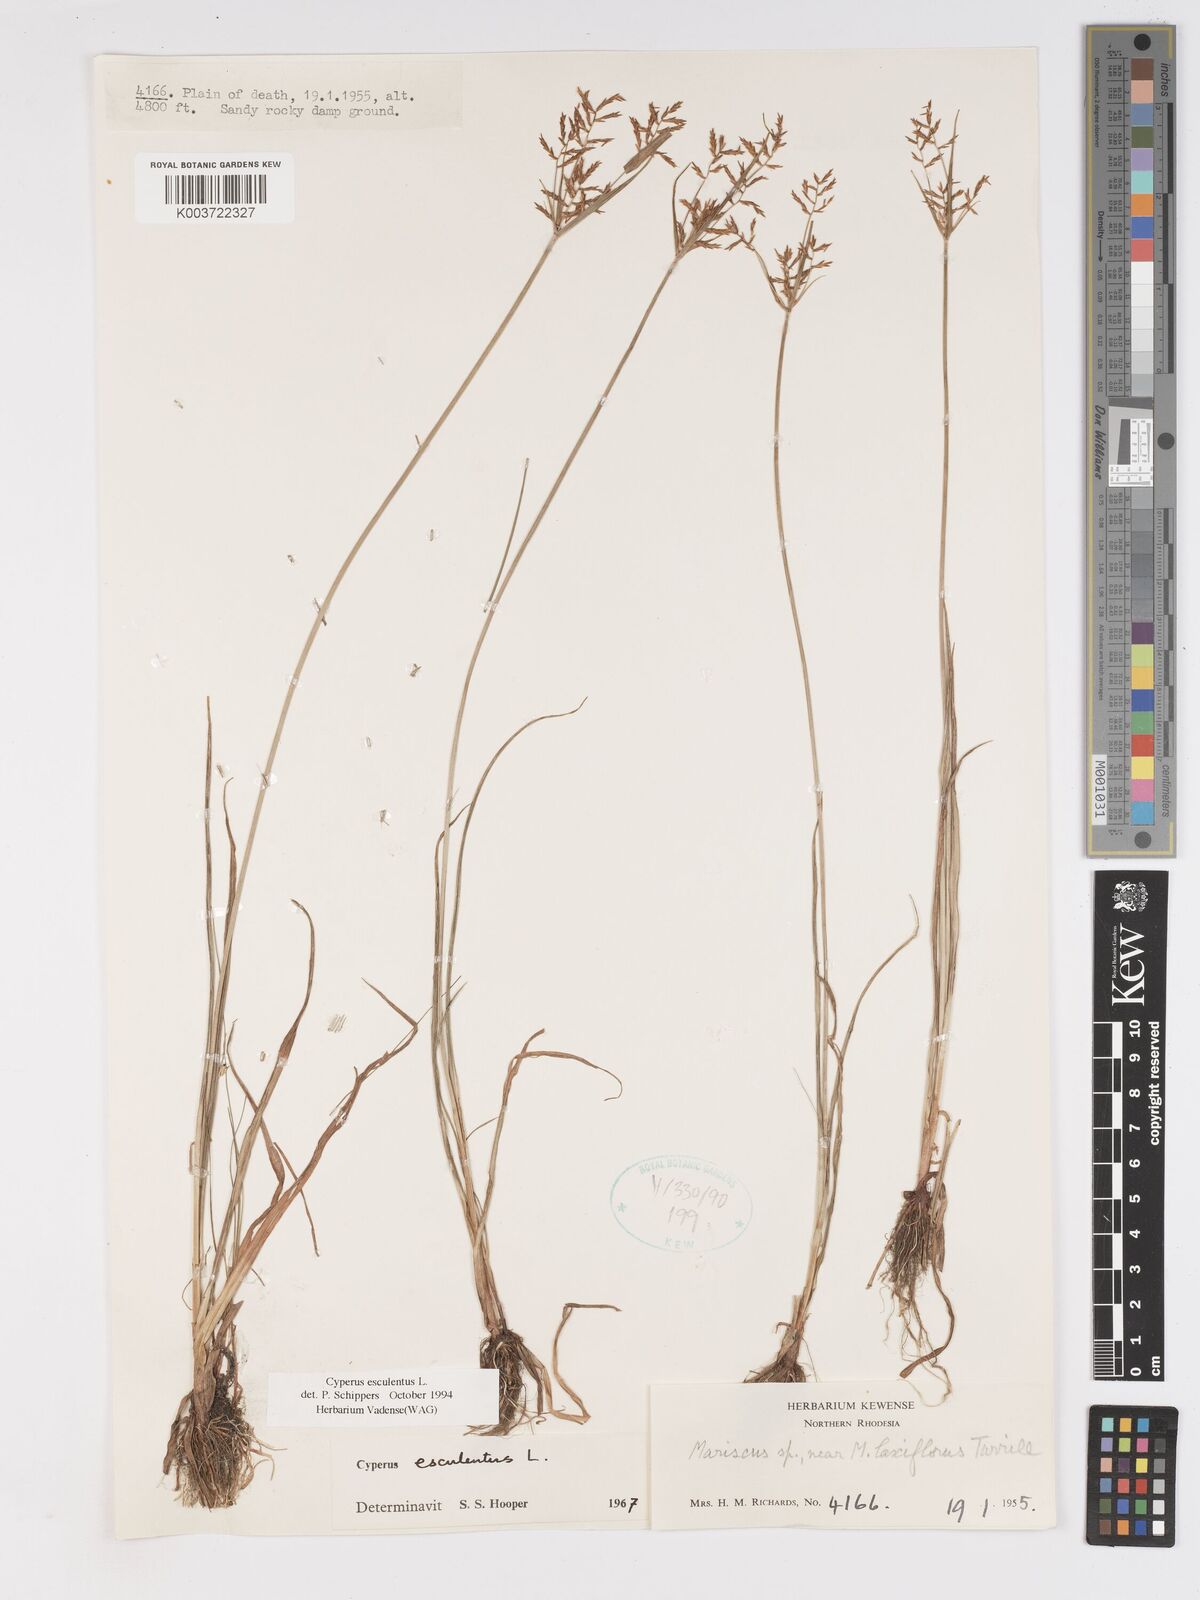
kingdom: Plantae
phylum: Tracheophyta
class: Liliopsida
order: Poales
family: Cyperaceae
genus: Cyperus
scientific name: Cyperus esculentus
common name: Yellow nutsedge
